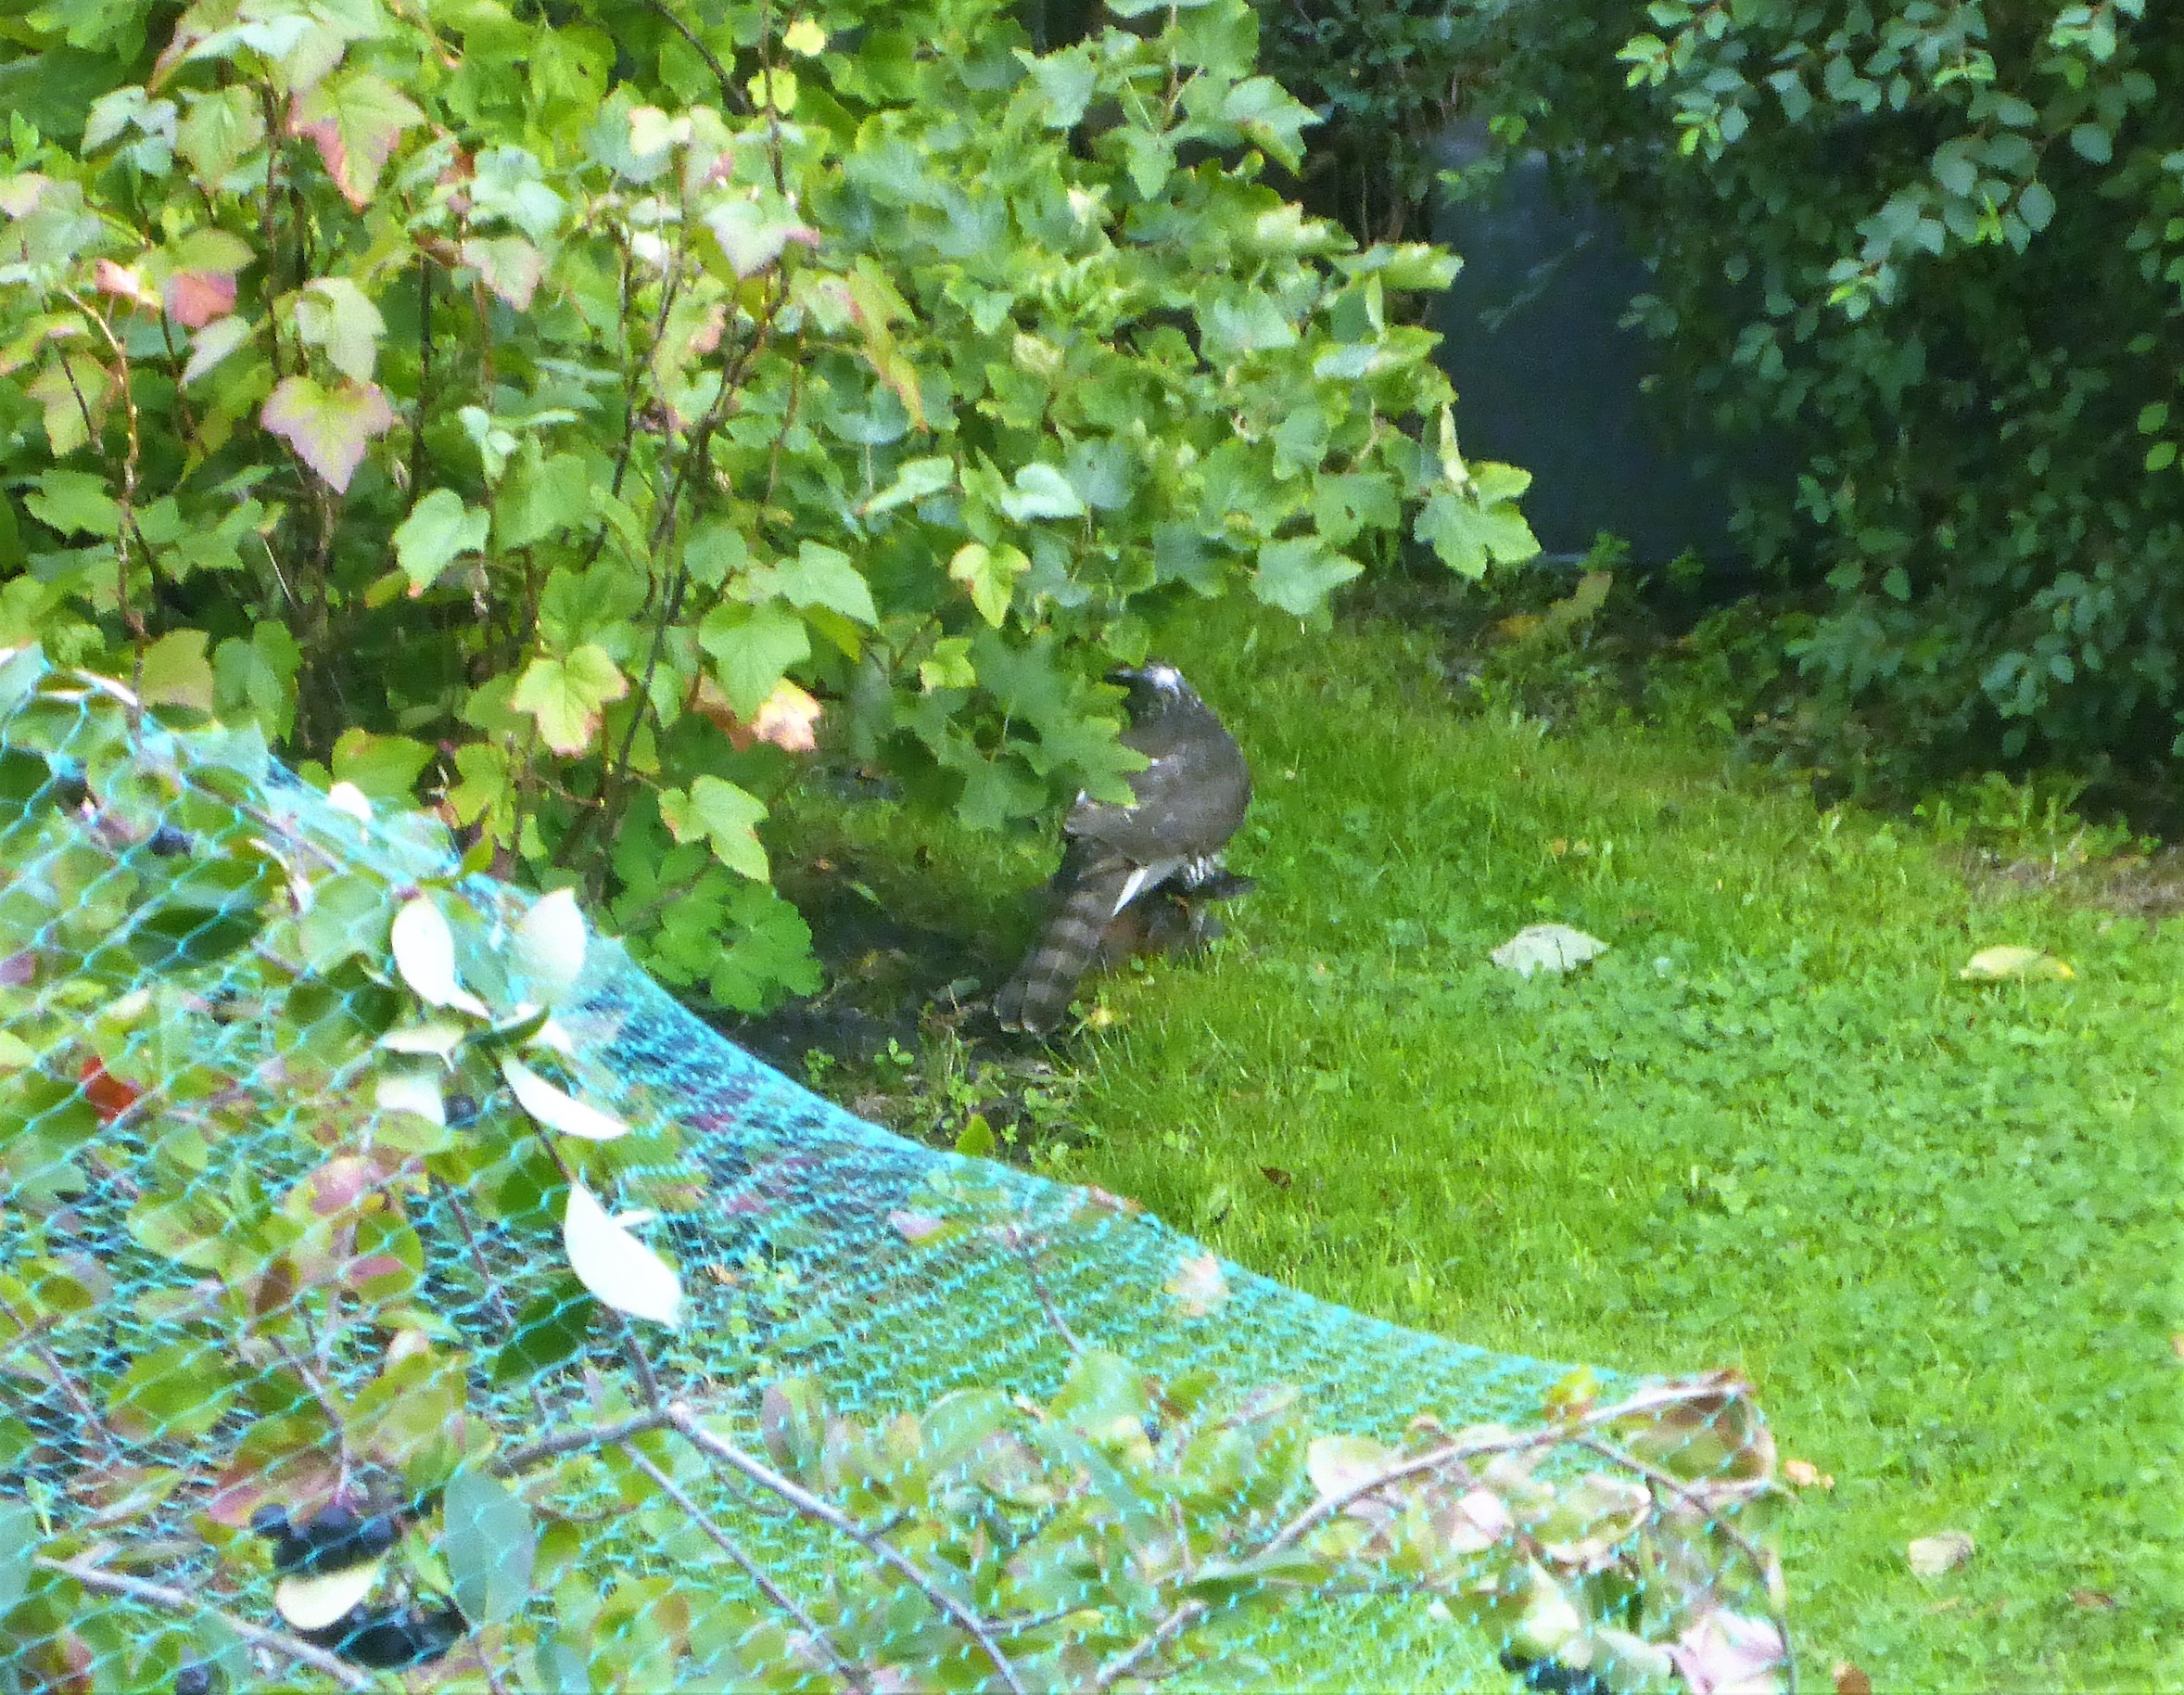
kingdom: Animalia
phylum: Chordata
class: Aves
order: Accipitriformes
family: Accipitridae
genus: Accipiter
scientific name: Accipiter nisus
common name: Spurvehøg
